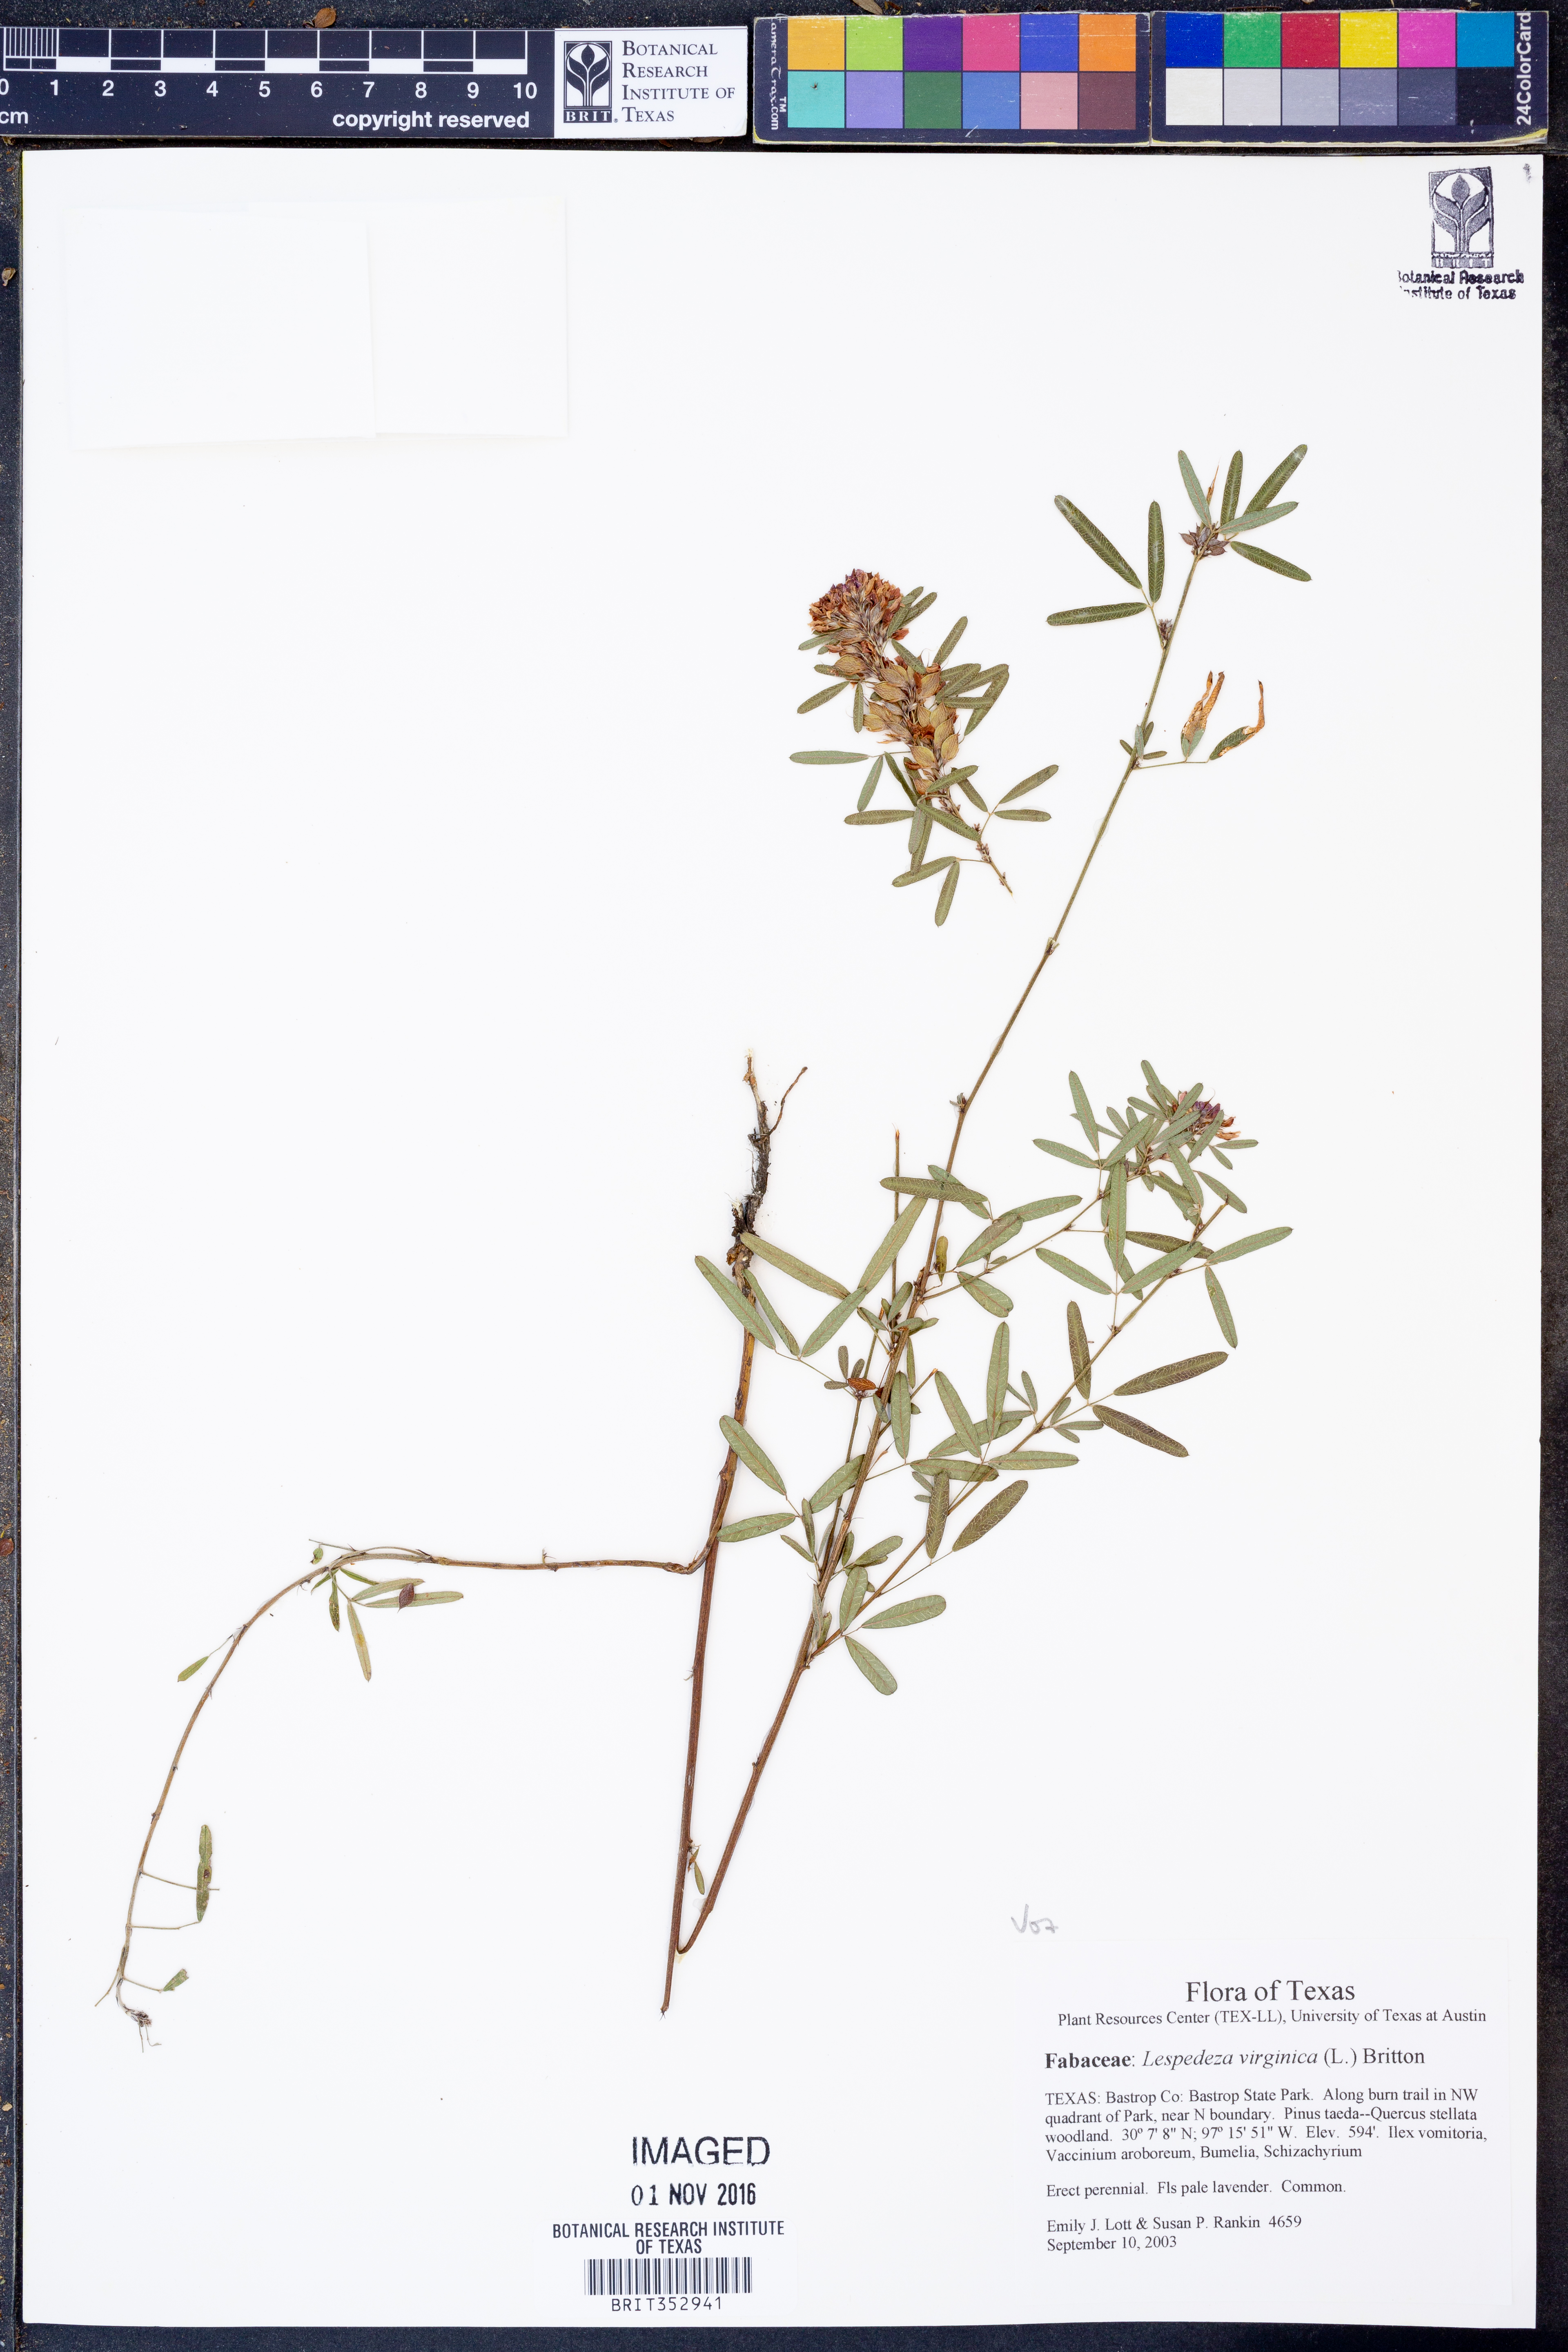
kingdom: Plantae
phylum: Tracheophyta
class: Magnoliopsida
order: Fabales
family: Fabaceae
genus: Lespedeza
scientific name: Lespedeza virginica
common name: Slender bush-clover
